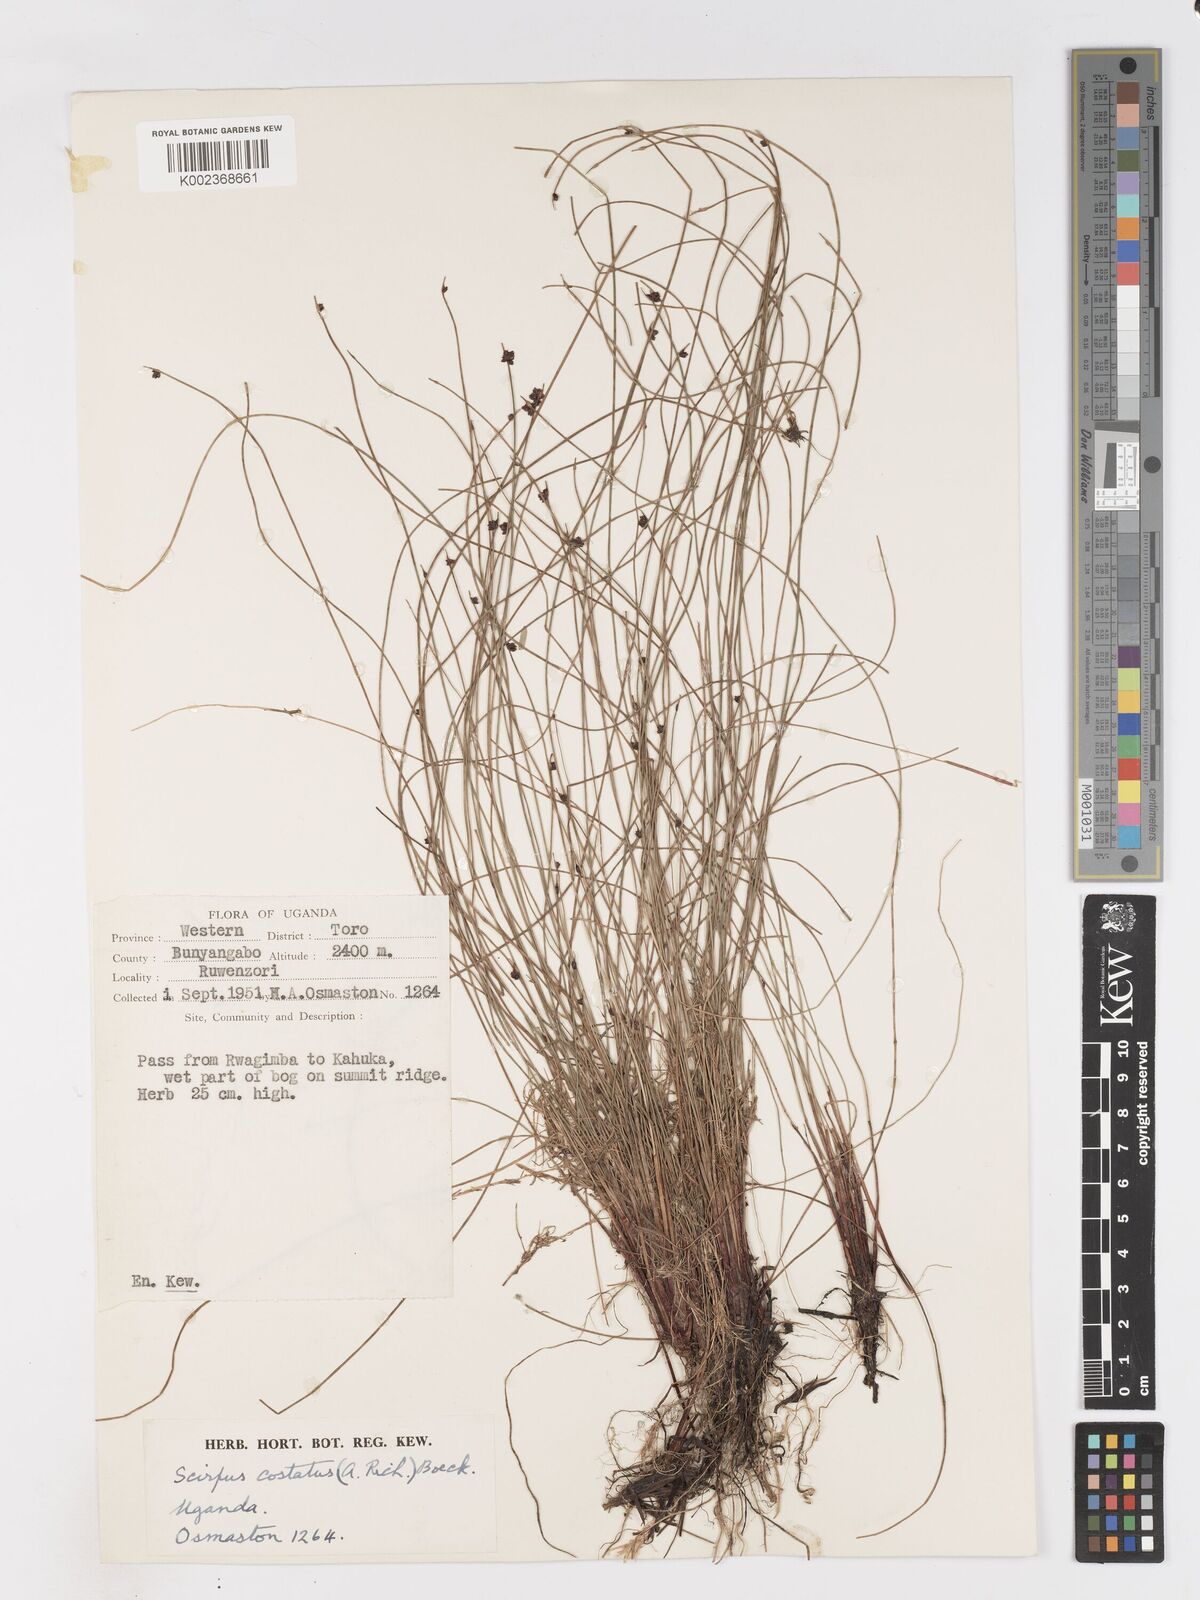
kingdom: Plantae
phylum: Tracheophyta
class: Liliopsida
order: Poales
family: Cyperaceae
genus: Isolepis
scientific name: Isolepis costata
